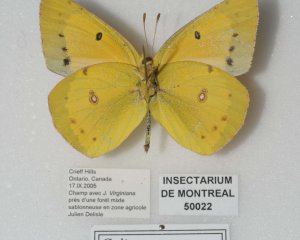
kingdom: Animalia
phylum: Arthropoda
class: Insecta
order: Lepidoptera
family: Pieridae
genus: Colias
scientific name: Colias eurytheme
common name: Orange Sulphur
